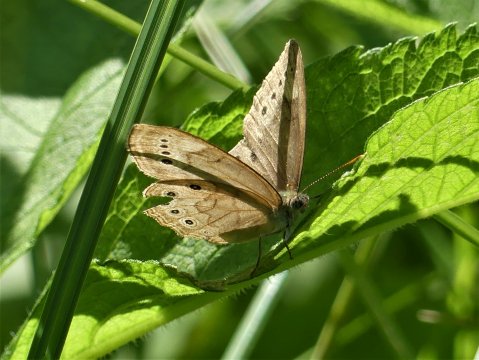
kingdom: Animalia
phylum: Arthropoda
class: Insecta
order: Lepidoptera
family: Nymphalidae
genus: Lethe
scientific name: Lethe eurydice
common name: Eyed Brown
